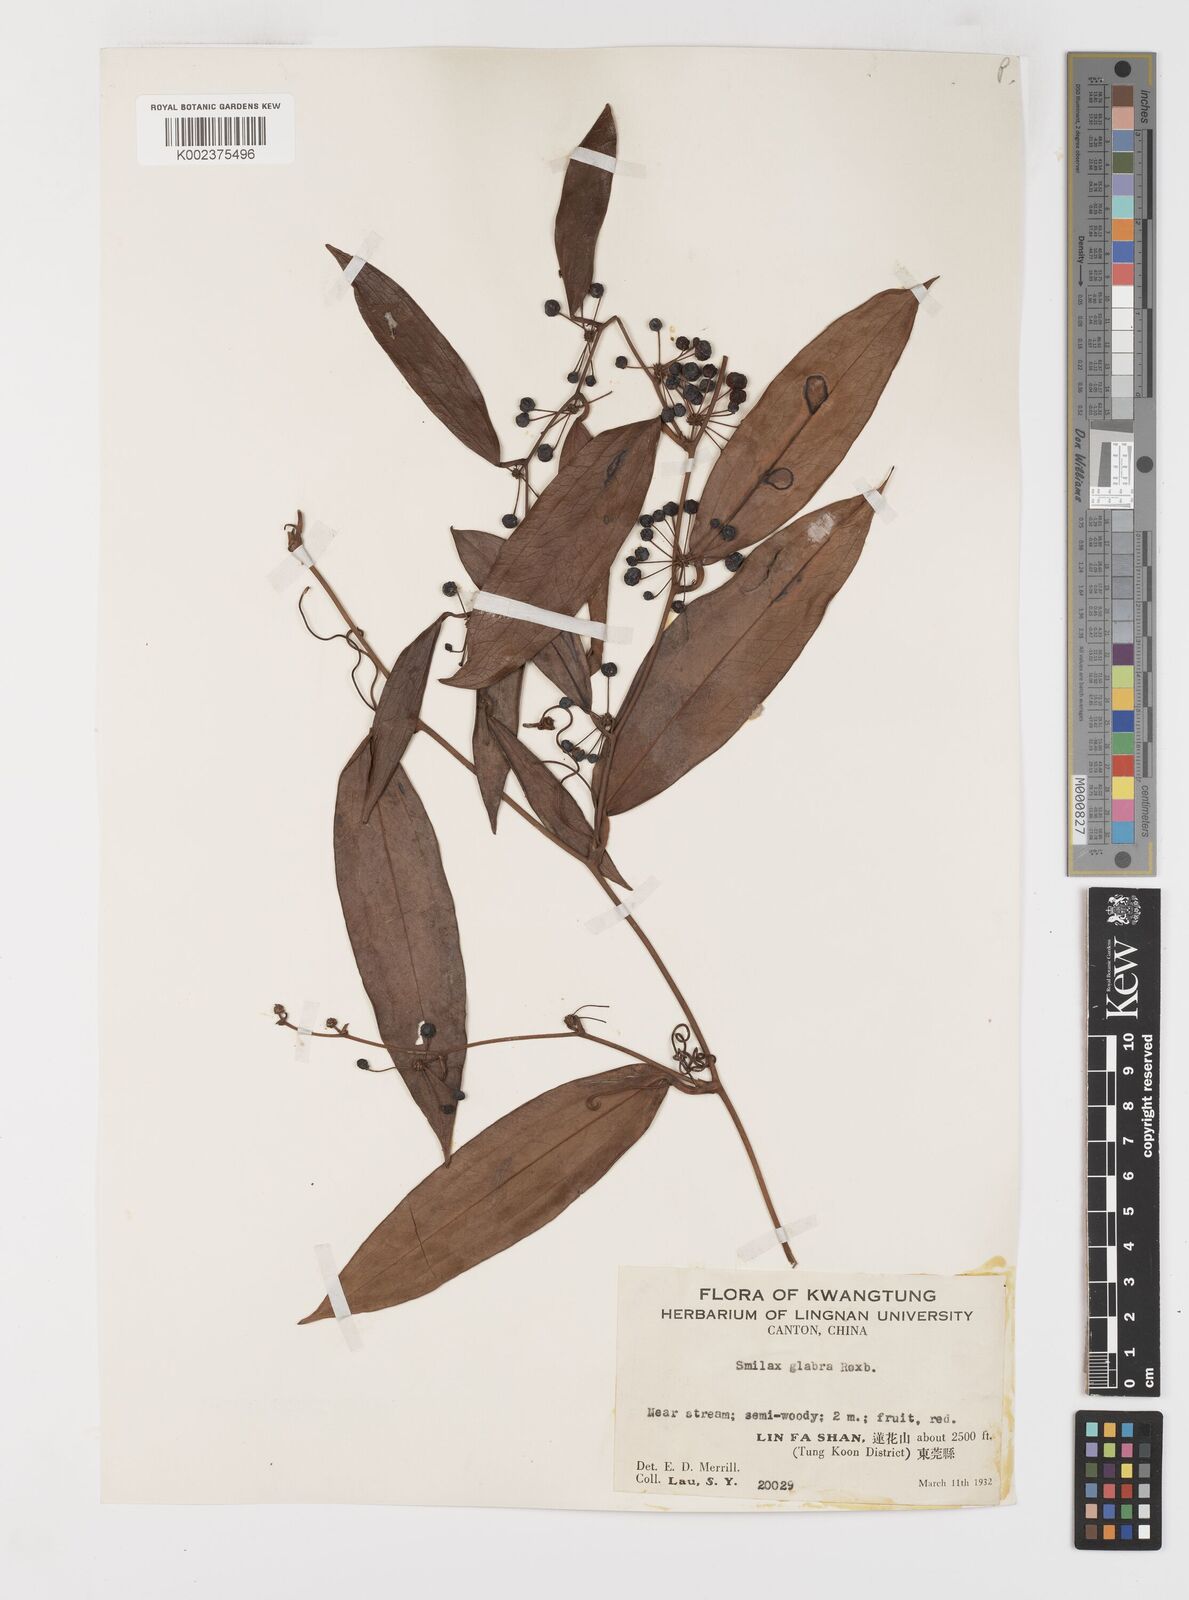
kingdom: Plantae
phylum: Tracheophyta
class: Liliopsida
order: Liliales
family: Smilacaceae
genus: Smilax
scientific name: Smilax glabra
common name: Chinese smilax
